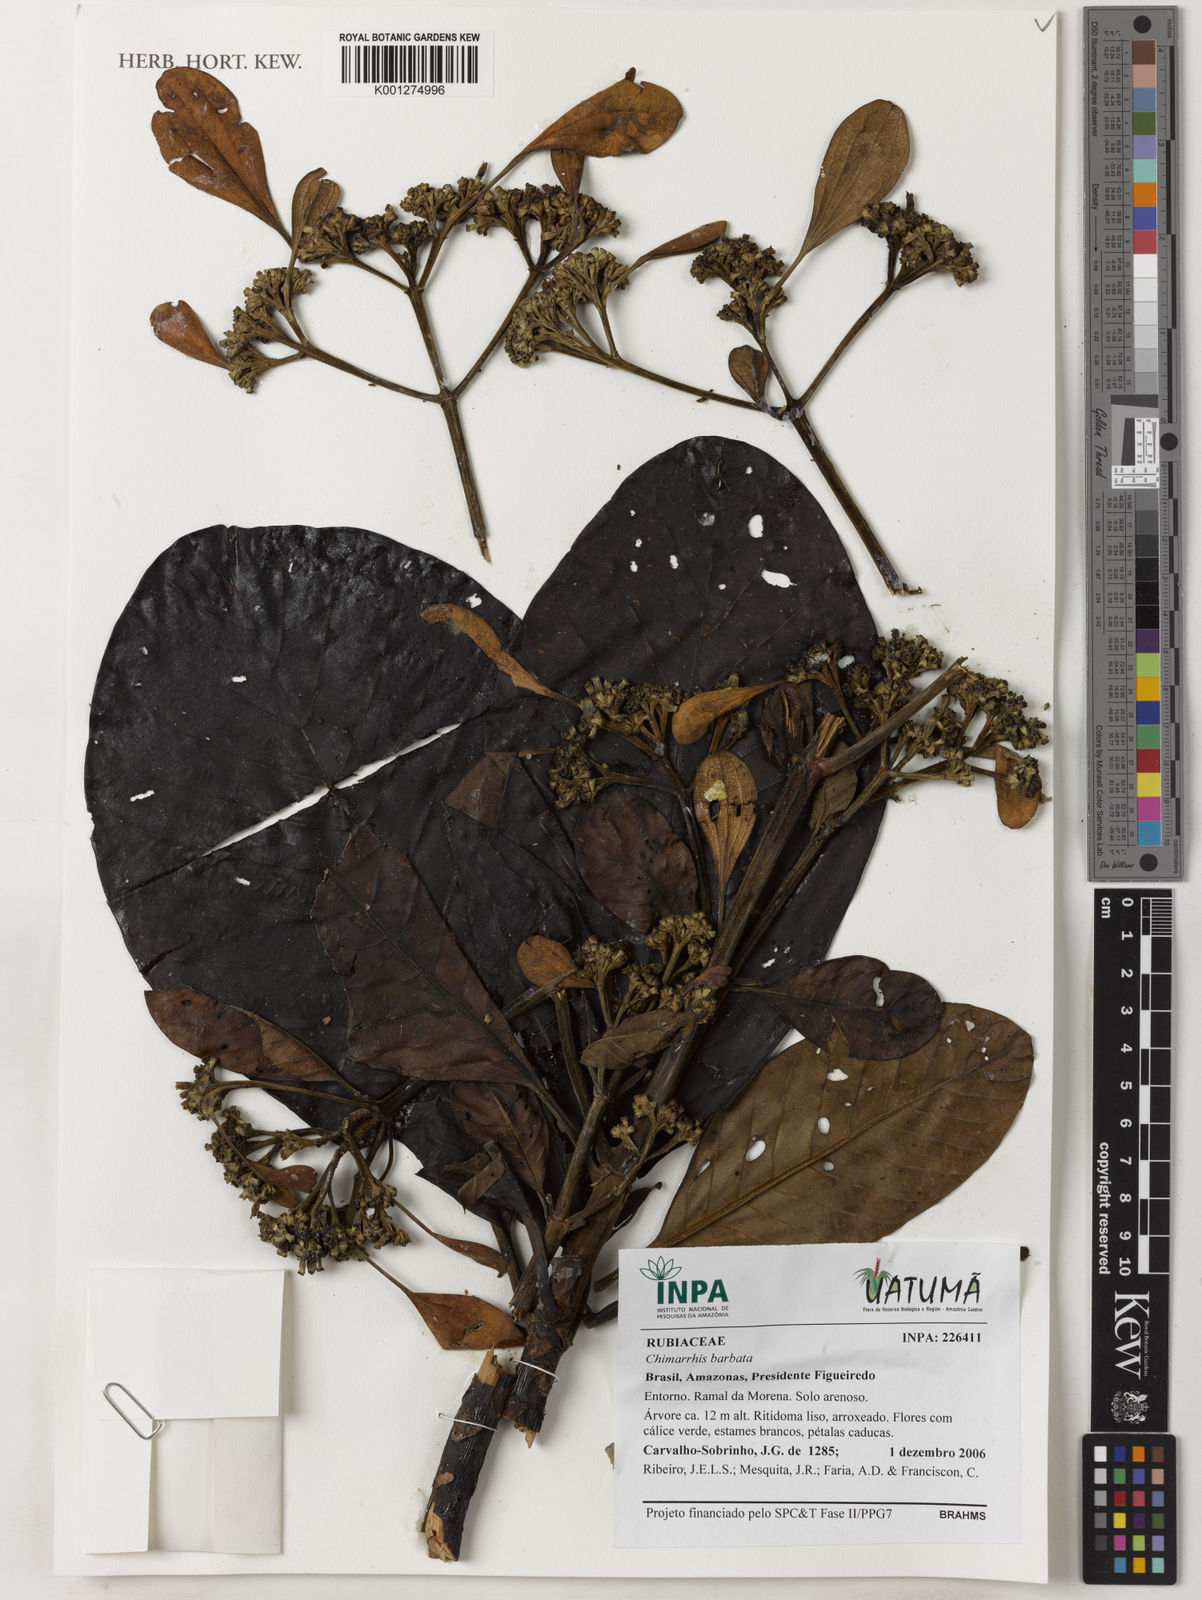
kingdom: Plantae
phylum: Tracheophyta
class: Magnoliopsida
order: Gentianales
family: Rubiaceae
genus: Chimarrhis
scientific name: Chimarrhis barbata
